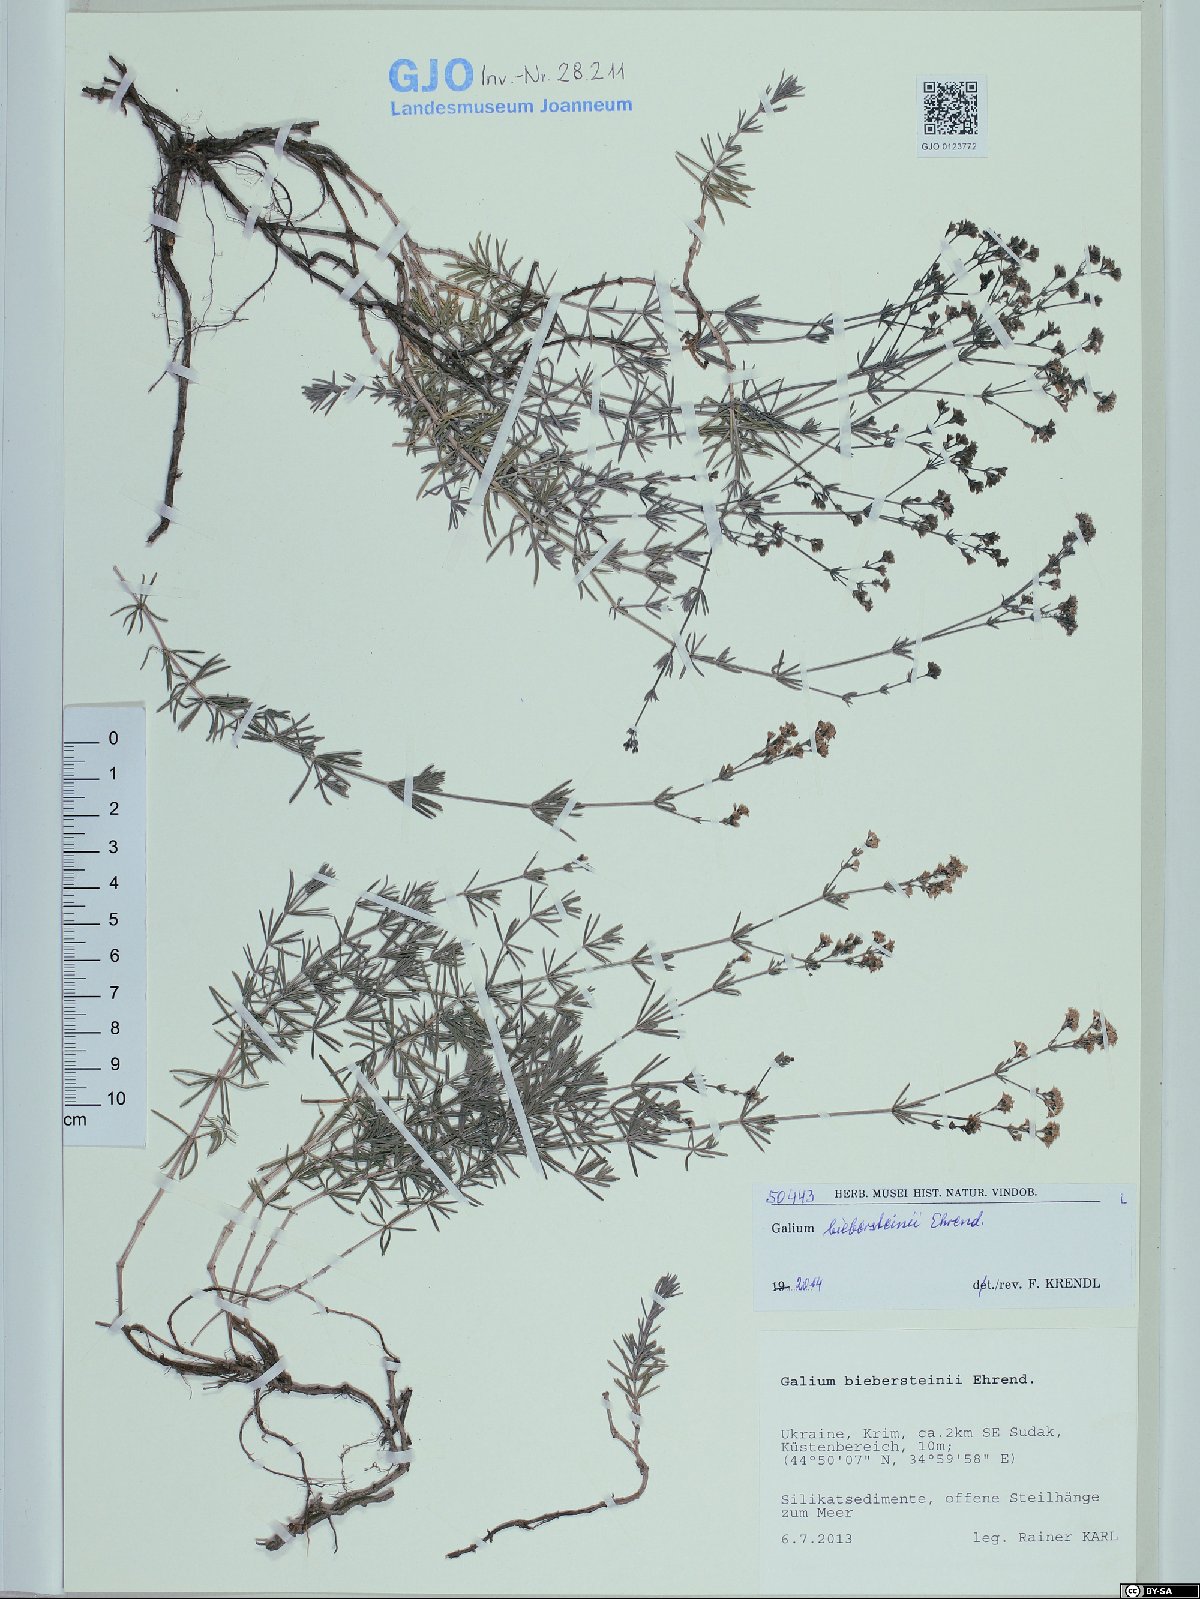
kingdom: Plantae
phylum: Tracheophyta
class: Magnoliopsida
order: Gentianales
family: Rubiaceae
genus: Galium
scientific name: Galium xeroticum
